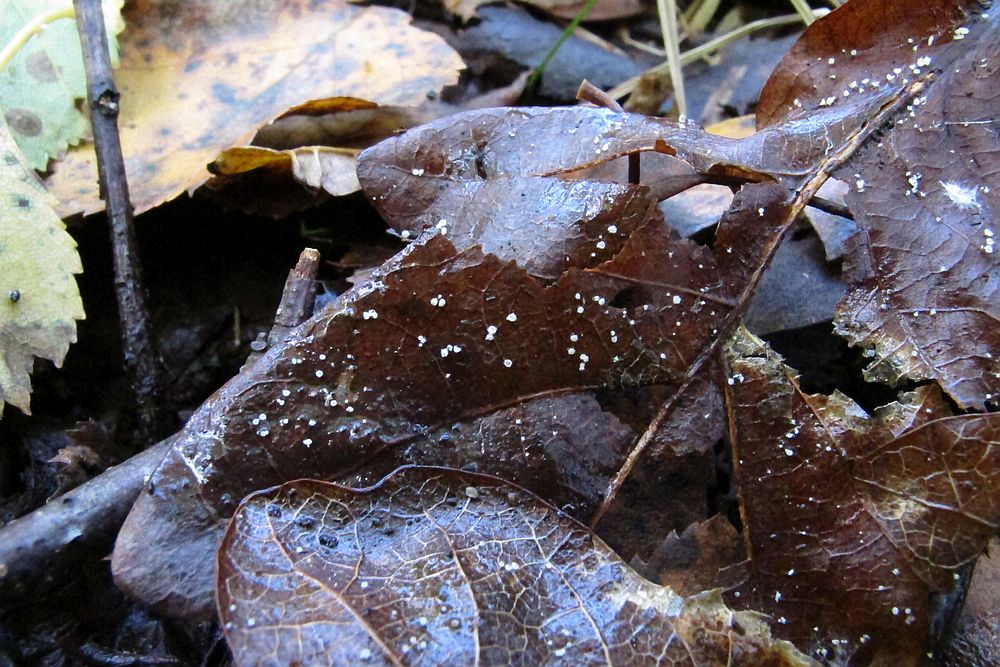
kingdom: Fungi
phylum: Ascomycota
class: Leotiomycetes
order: Helotiales
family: Lachnaceae
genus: Incrucipulum
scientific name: Incrucipulum ciliare
